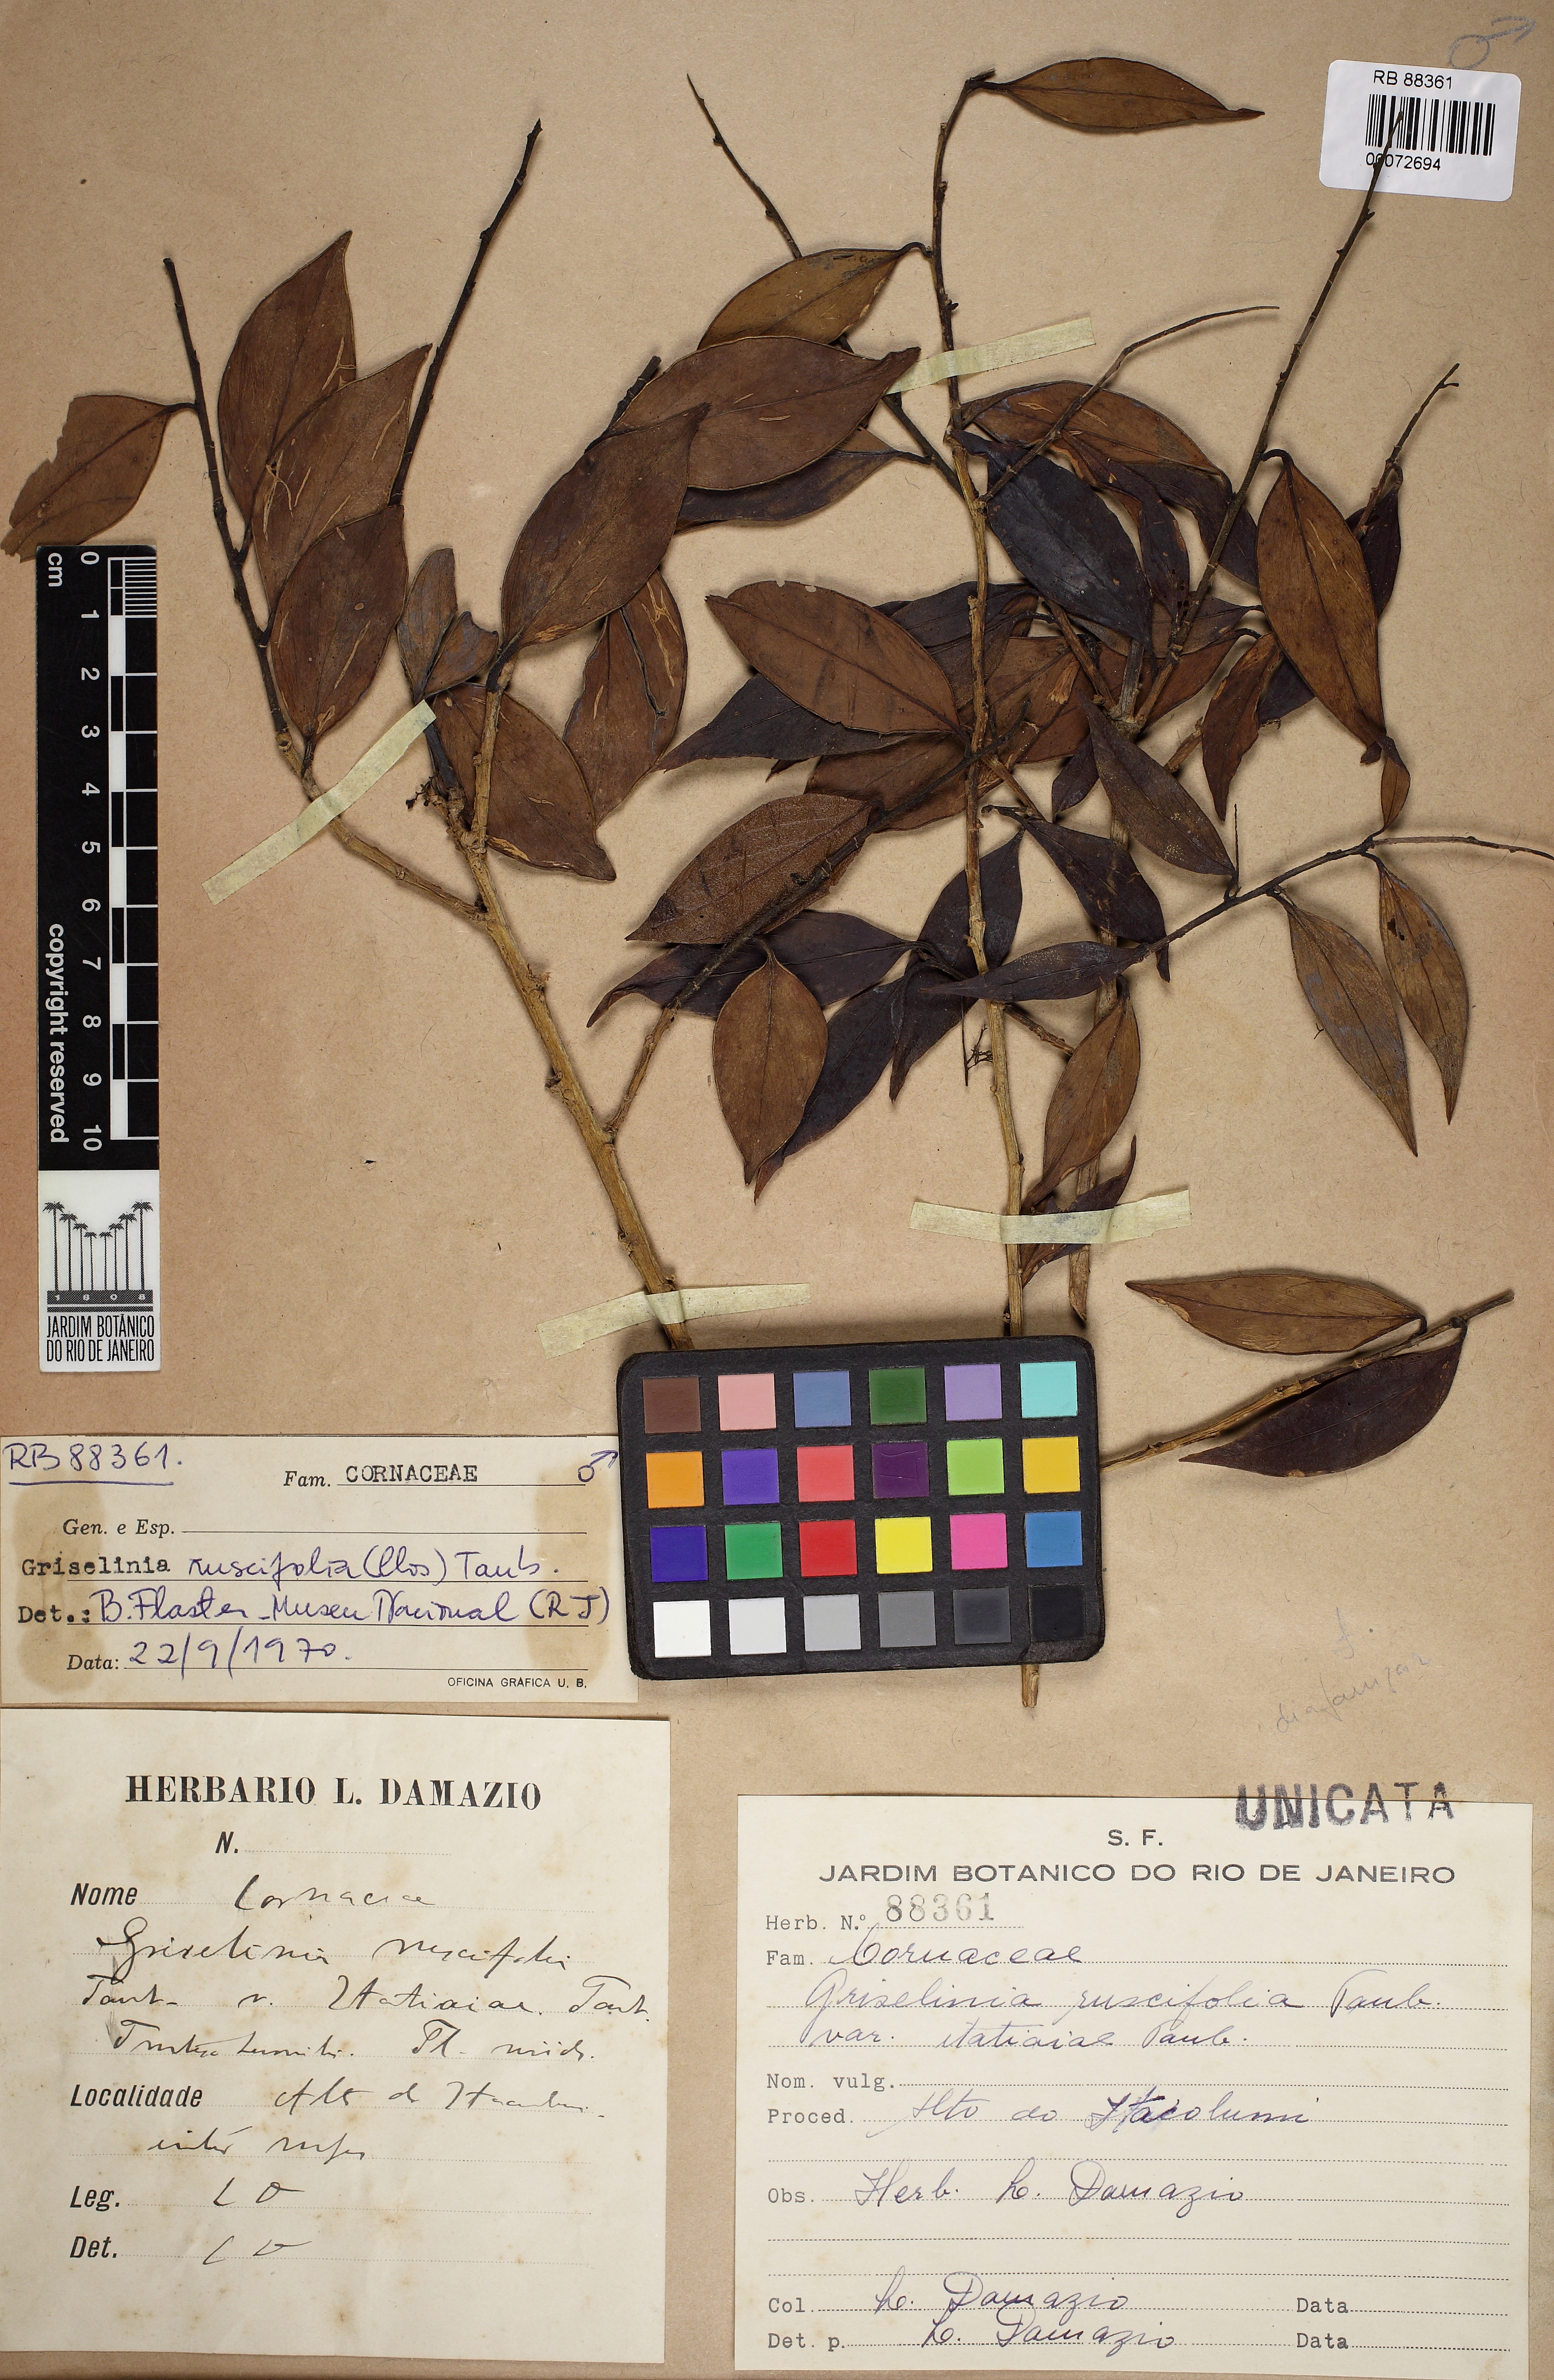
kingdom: Plantae
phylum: Tracheophyta
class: Magnoliopsida
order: Apiales
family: Griseliniaceae
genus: Griselinia
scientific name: Griselinia ruscifolia
